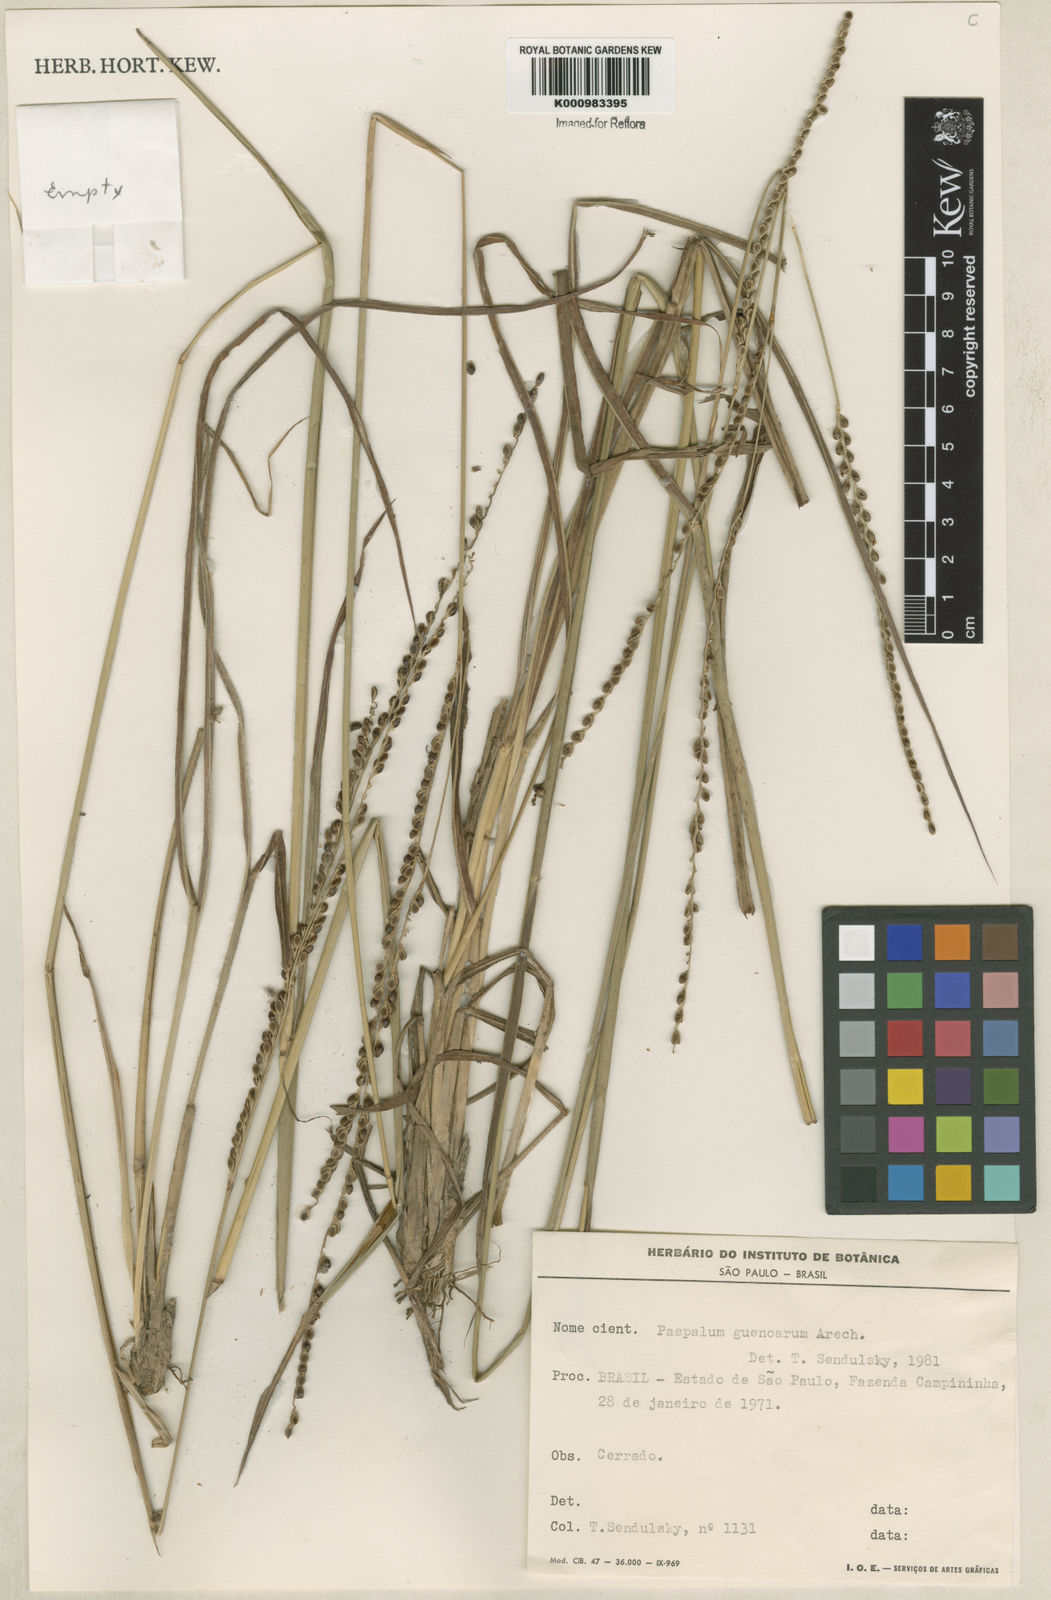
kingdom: Plantae
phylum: Tracheophyta
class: Liliopsida
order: Poales
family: Poaceae
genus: Paspalum
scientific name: Paspalum guenoarum
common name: Wintergreen paspalum
